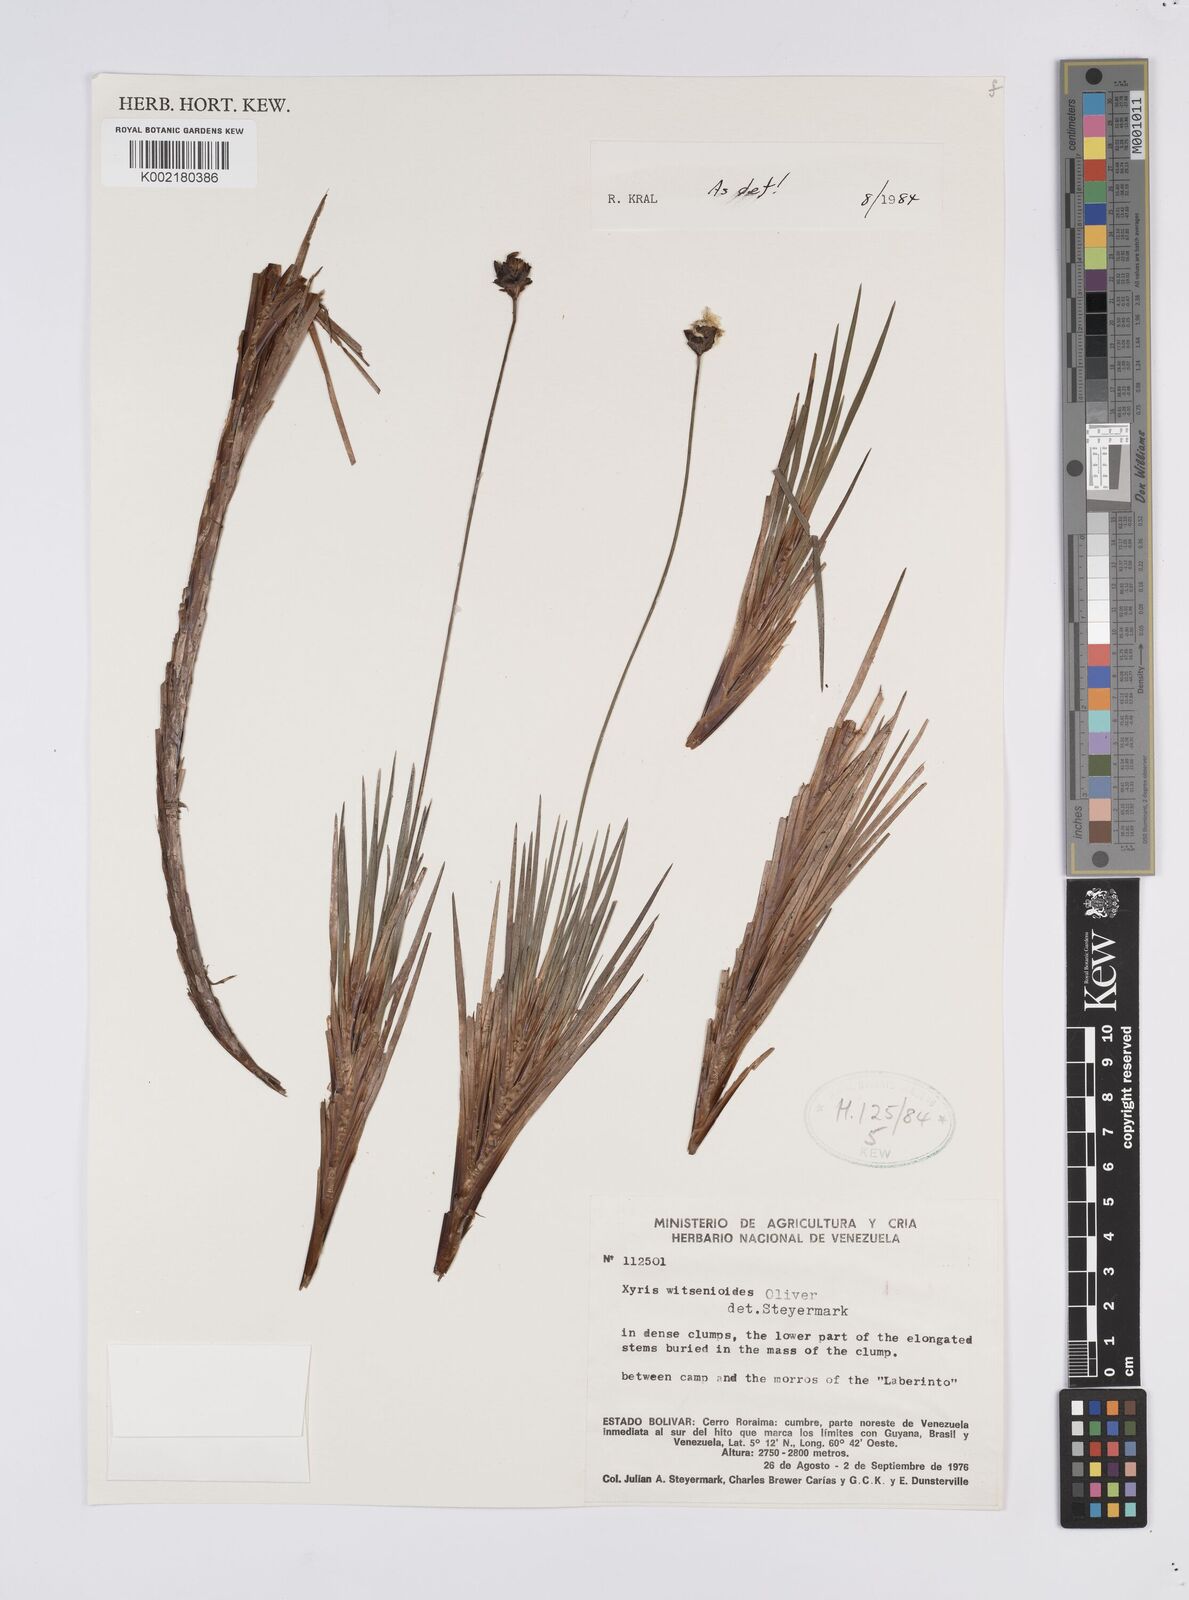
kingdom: Plantae
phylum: Tracheophyta
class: Liliopsida
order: Poales
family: Xyridaceae
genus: Xyris
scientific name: Xyris witsenioides
